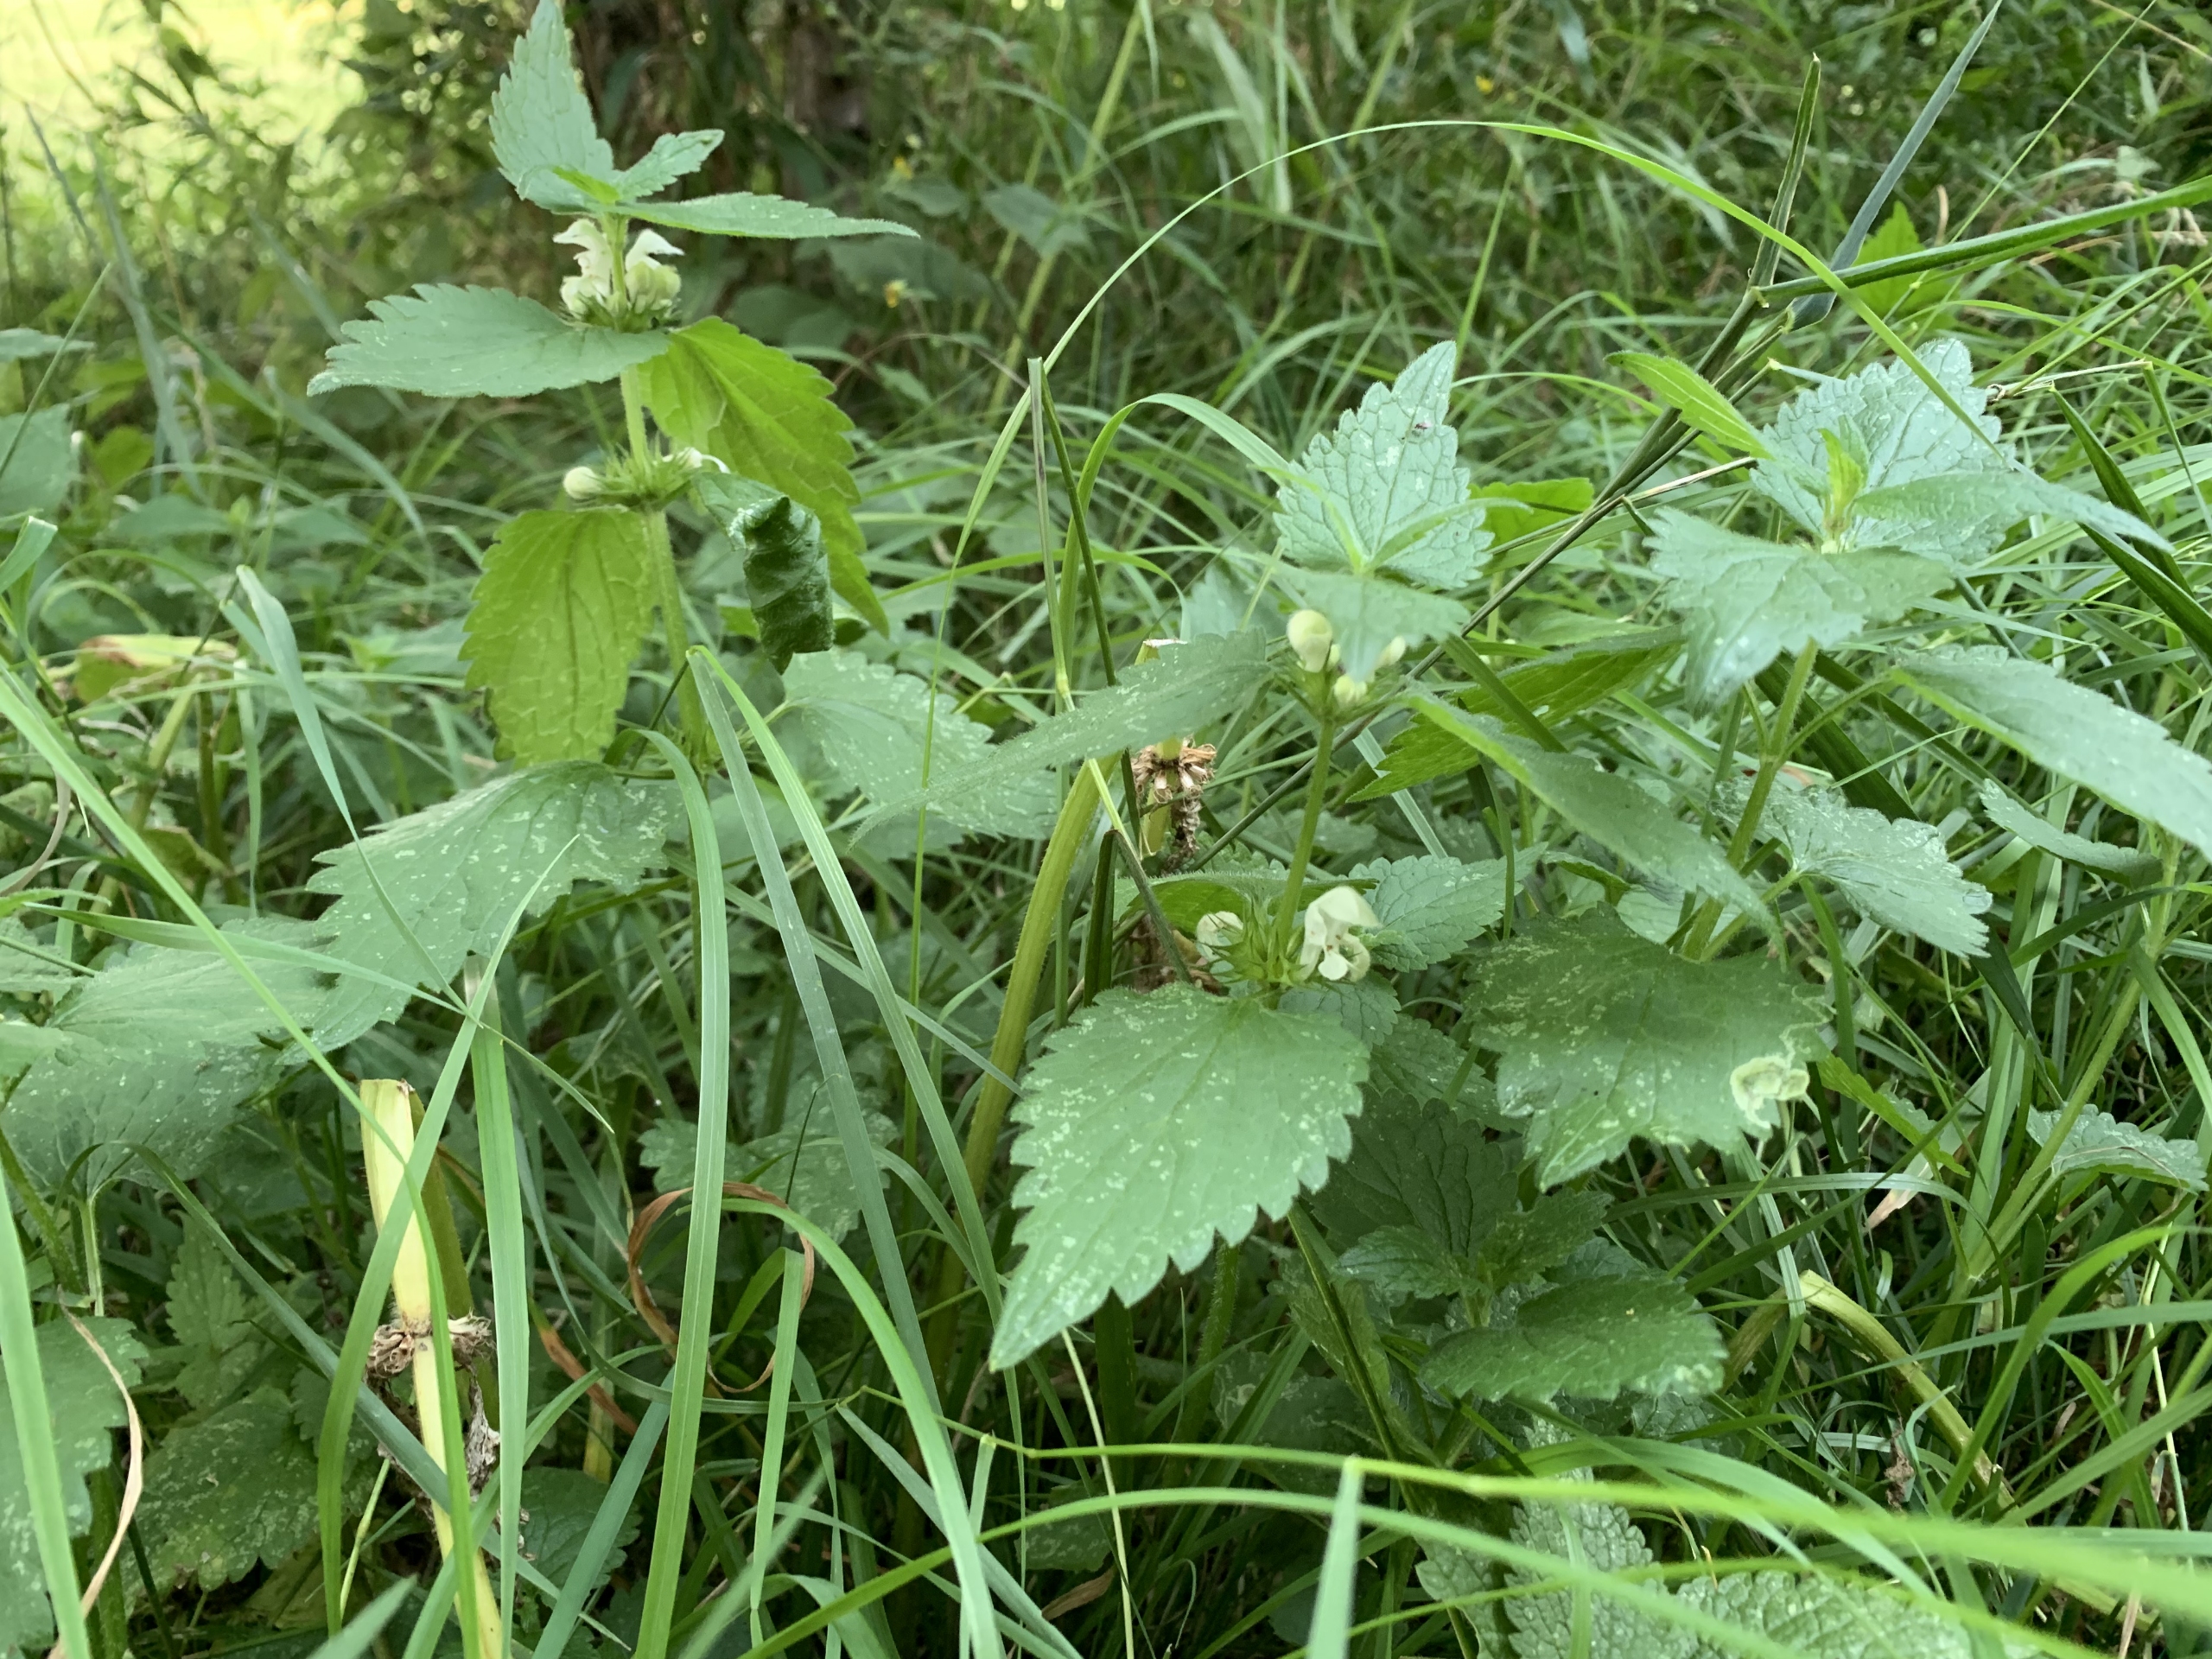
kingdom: Plantae
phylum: Tracheophyta
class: Magnoliopsida
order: Lamiales
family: Lamiaceae
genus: Lamium
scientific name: Lamium album
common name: Døvnælde
